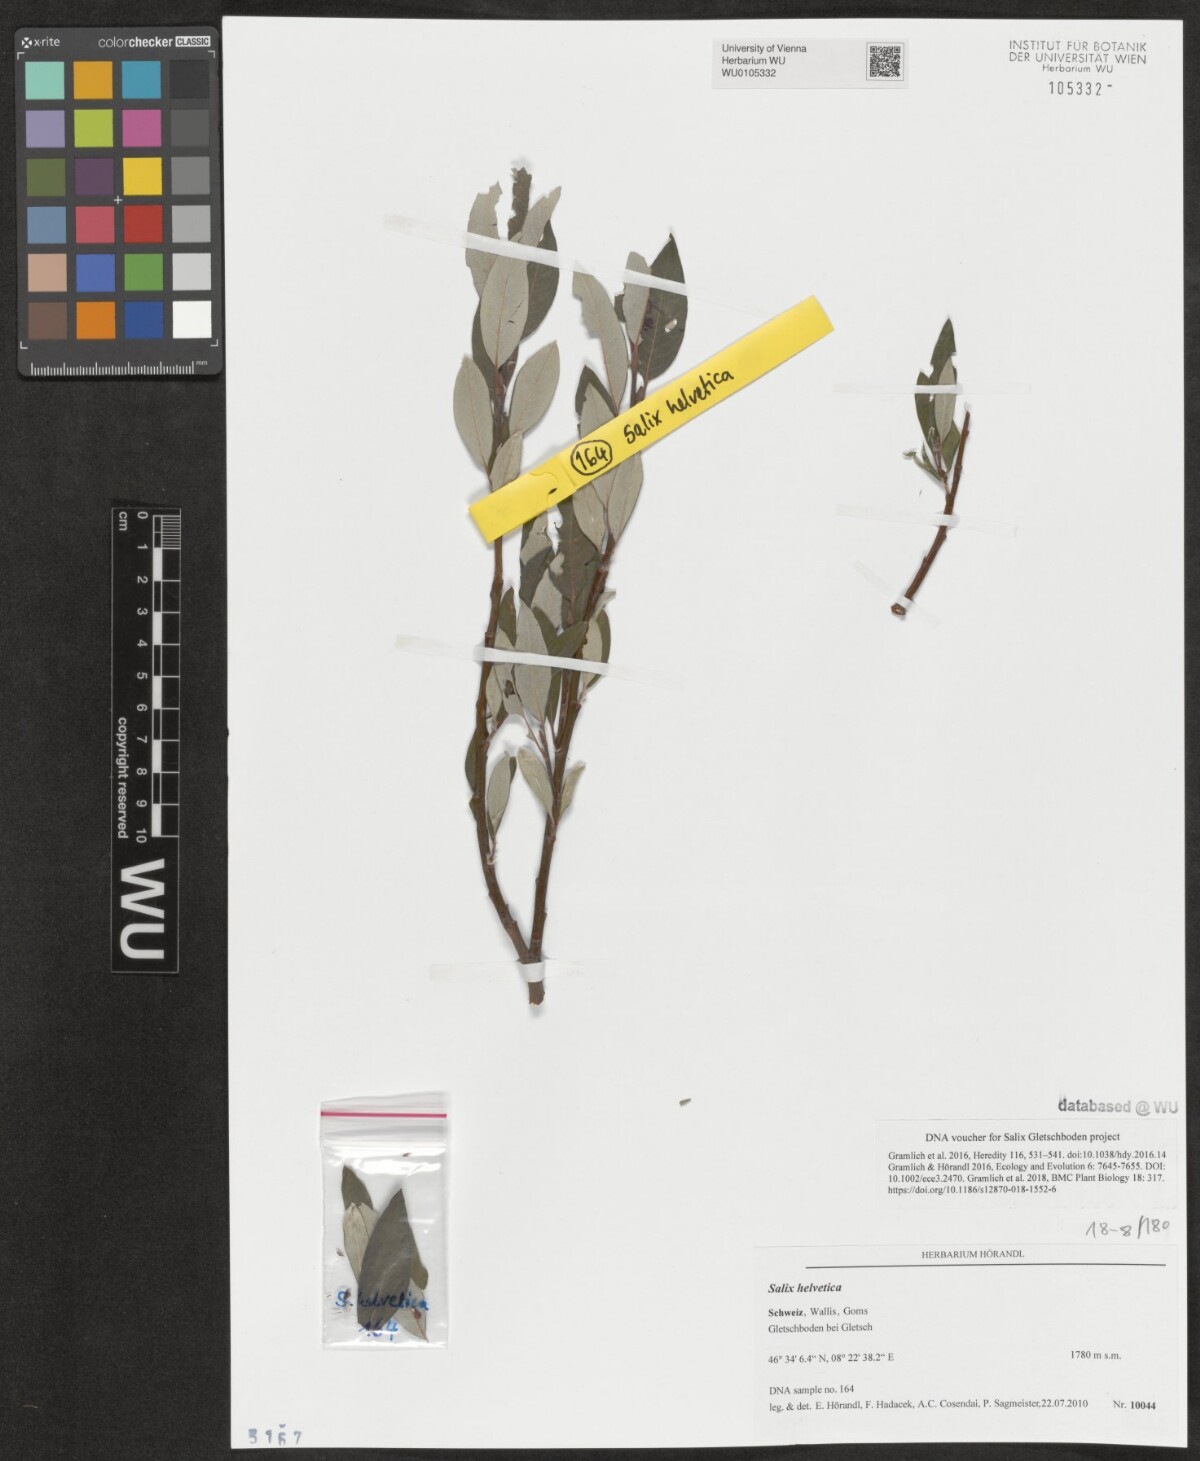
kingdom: Plantae
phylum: Tracheophyta
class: Magnoliopsida
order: Malpighiales
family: Salicaceae
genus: Salix
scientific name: Salix helvetica
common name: Swiss willow
